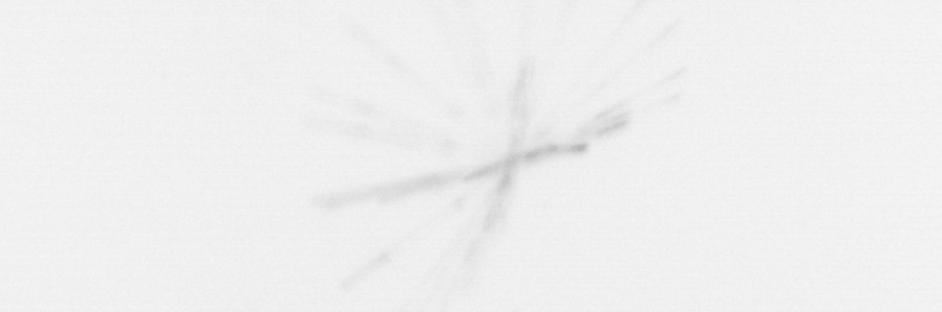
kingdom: Chromista
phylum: Ochrophyta
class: Bacillariophyceae
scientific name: Bacillariophyceae
